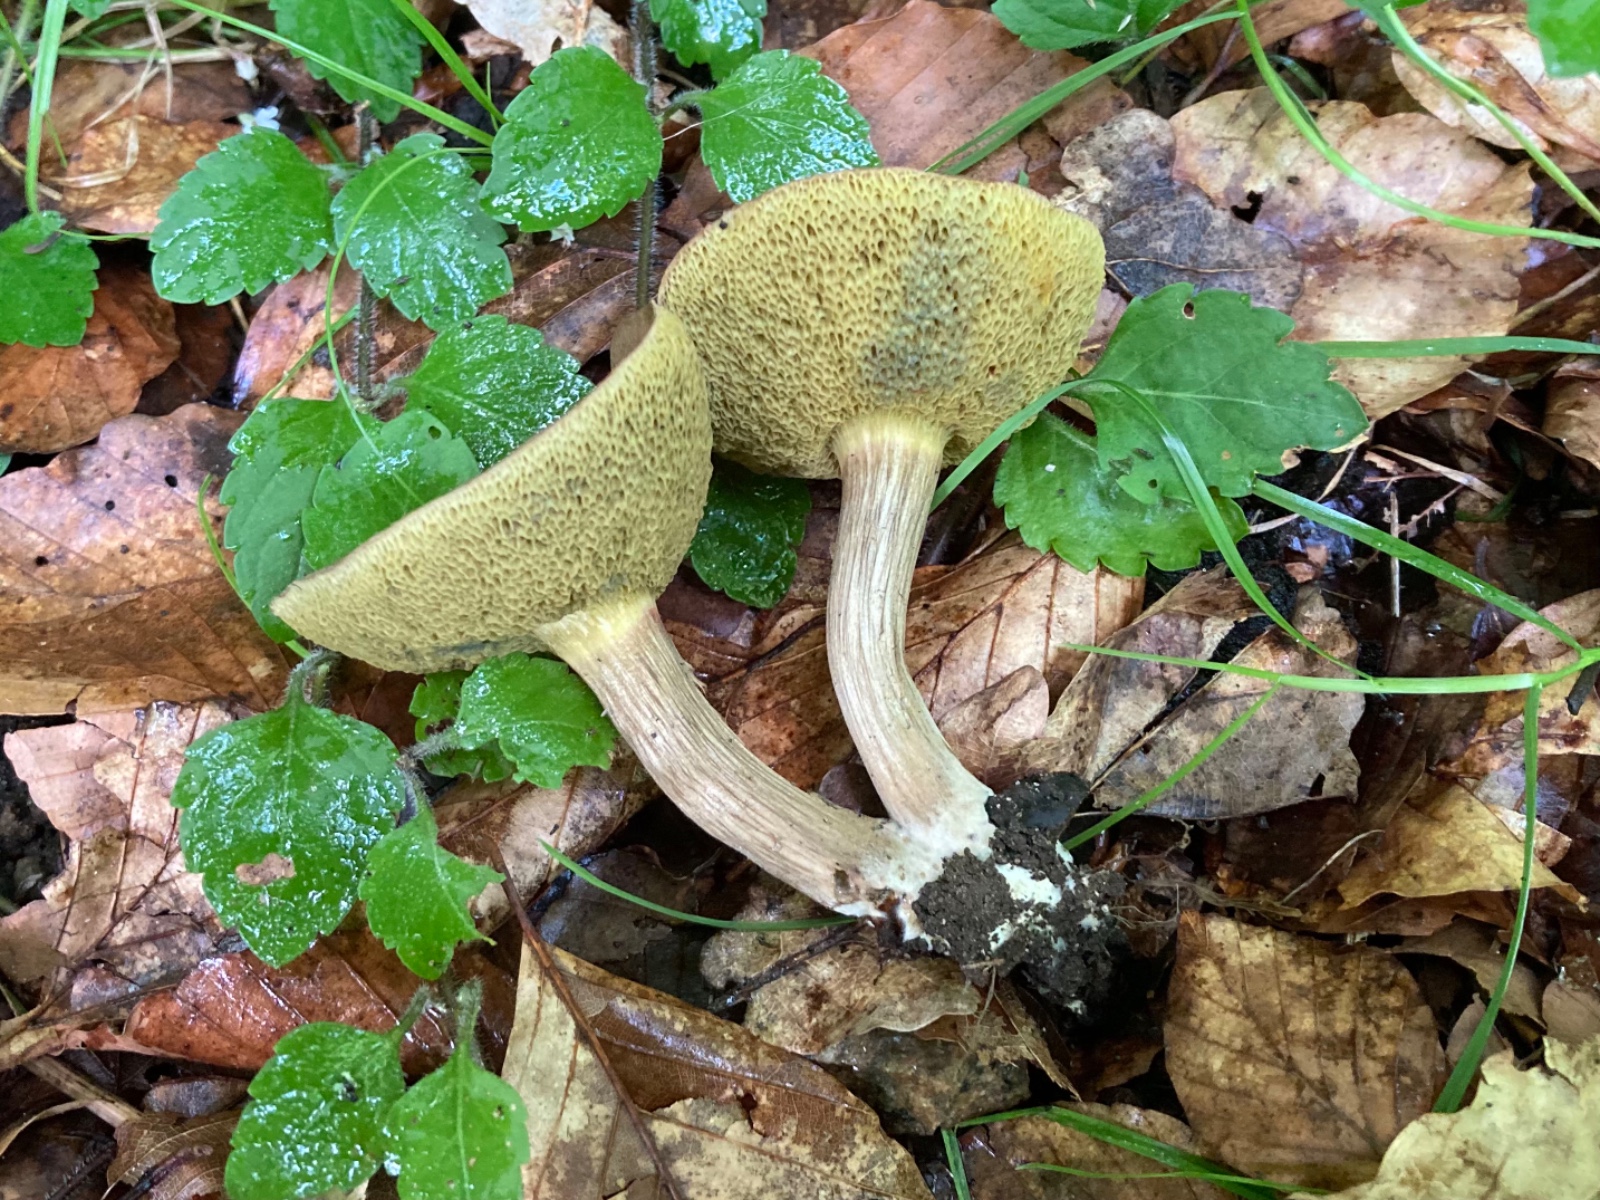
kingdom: Fungi
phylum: Basidiomycota
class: Agaricomycetes
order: Boletales
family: Boletaceae
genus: Xerocomellus
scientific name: Xerocomellus porosporus
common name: hvidsprukken rørhat
